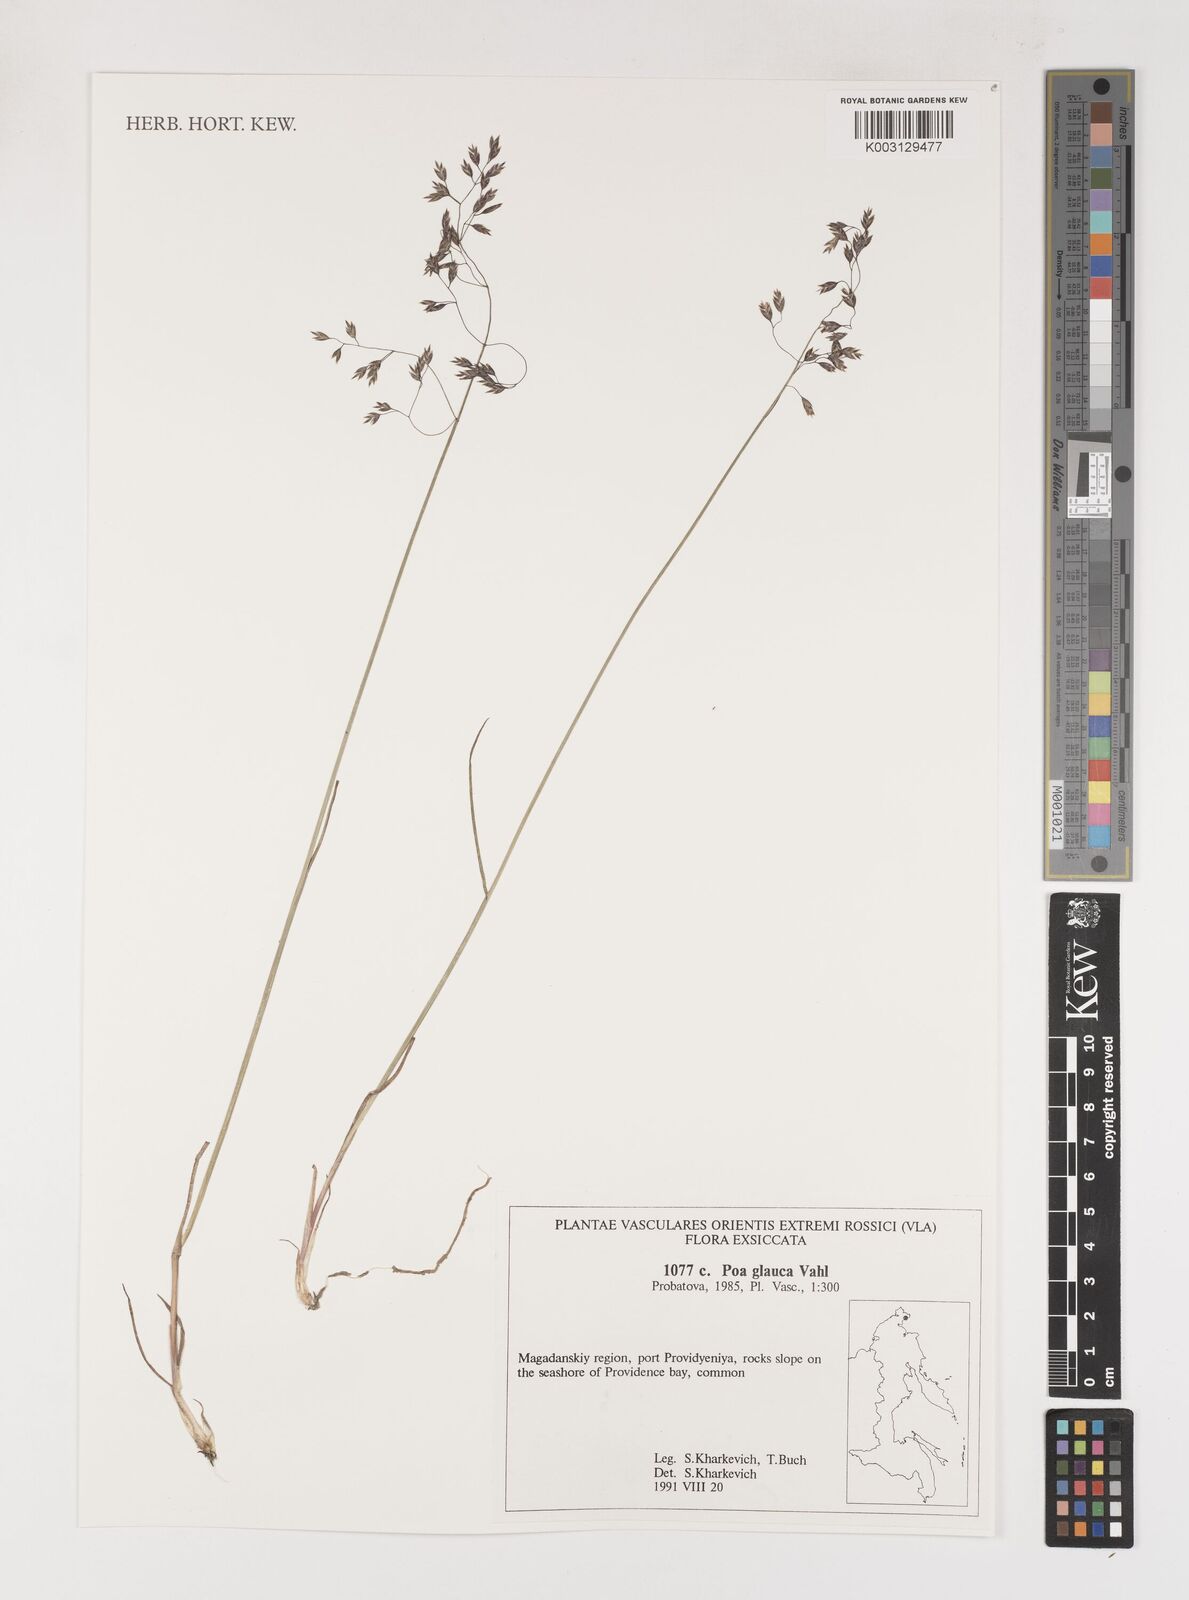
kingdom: Plantae
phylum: Tracheophyta
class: Liliopsida
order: Poales
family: Poaceae
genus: Poa
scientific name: Poa glauca
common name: Glaucous bluegrass
